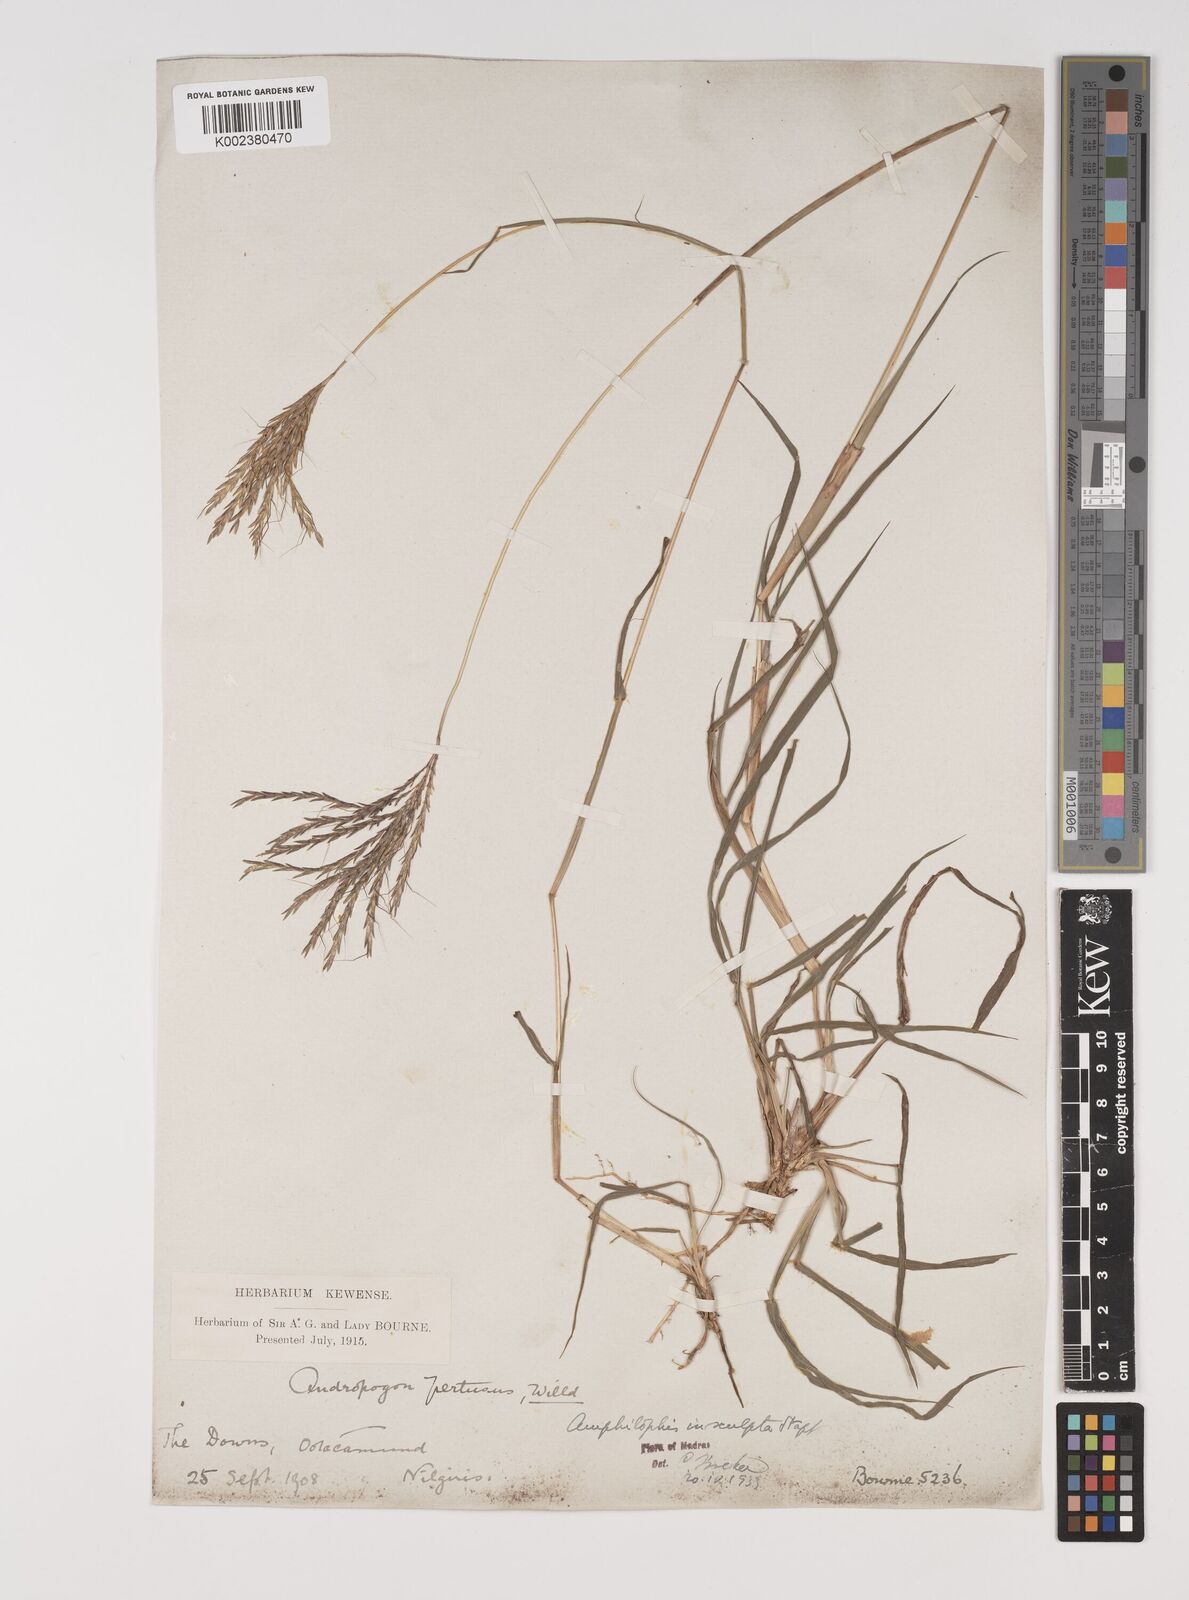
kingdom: Plantae
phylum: Tracheophyta
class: Liliopsida
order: Poales
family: Poaceae
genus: Bothriochloa
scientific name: Bothriochloa insculpta
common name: Creeping-bluegrass
